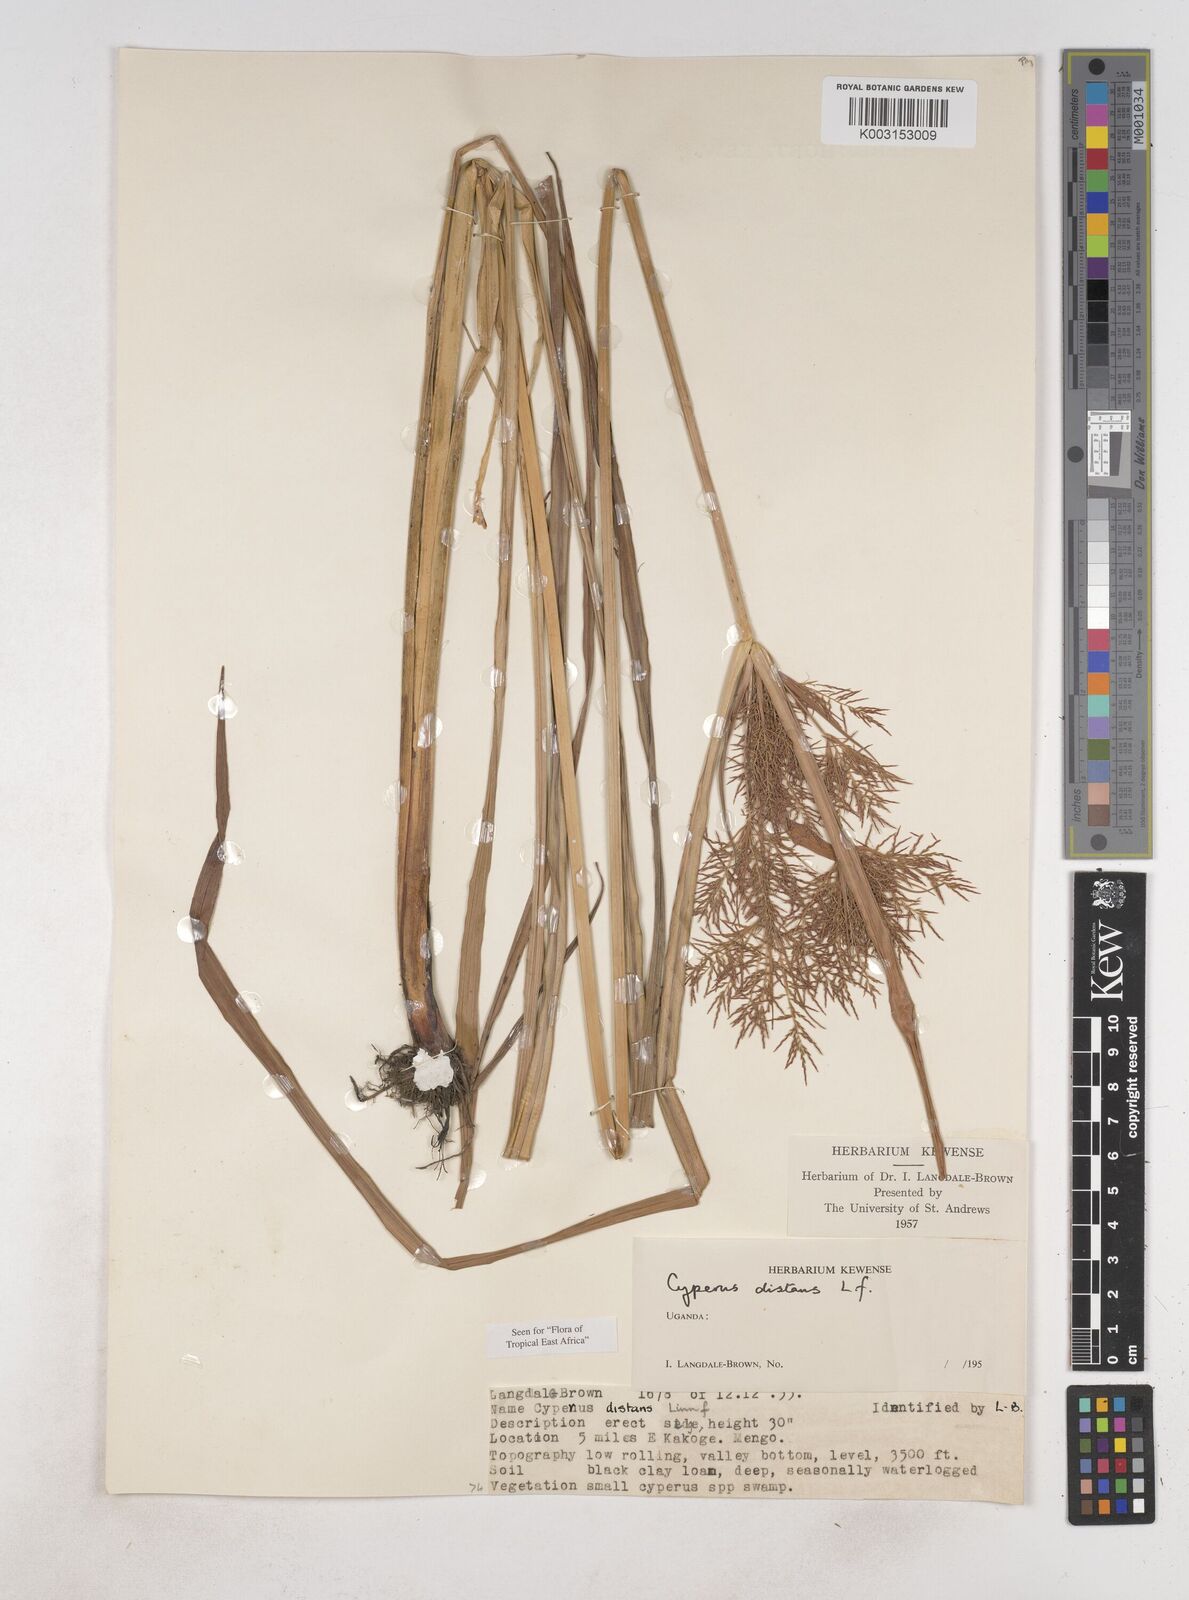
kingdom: Plantae
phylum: Tracheophyta
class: Liliopsida
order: Poales
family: Cyperaceae
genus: Cyperus
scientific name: Cyperus distans
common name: Slender cyperus
